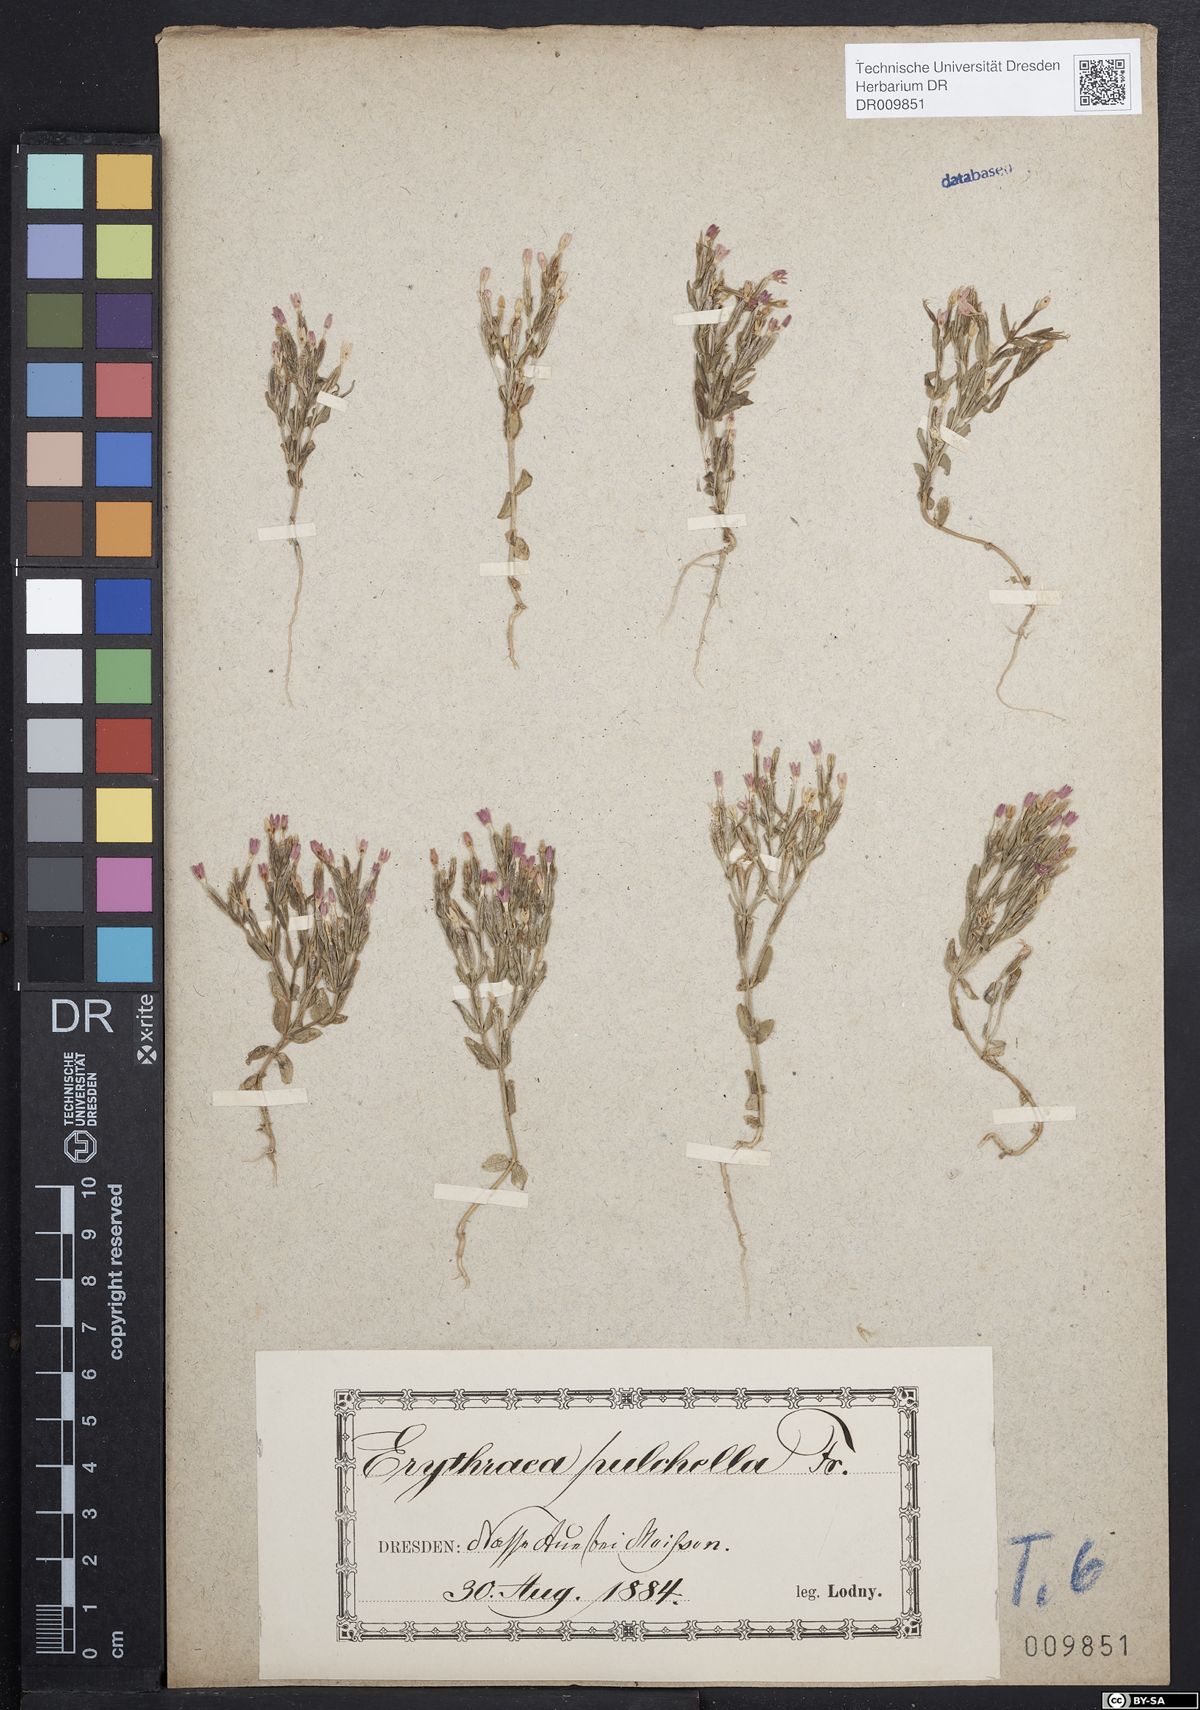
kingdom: Plantae
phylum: Tracheophyta
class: Magnoliopsida
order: Gentianales
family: Gentianaceae
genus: Centaurium
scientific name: Centaurium pulchellum
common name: Lesser centaury
